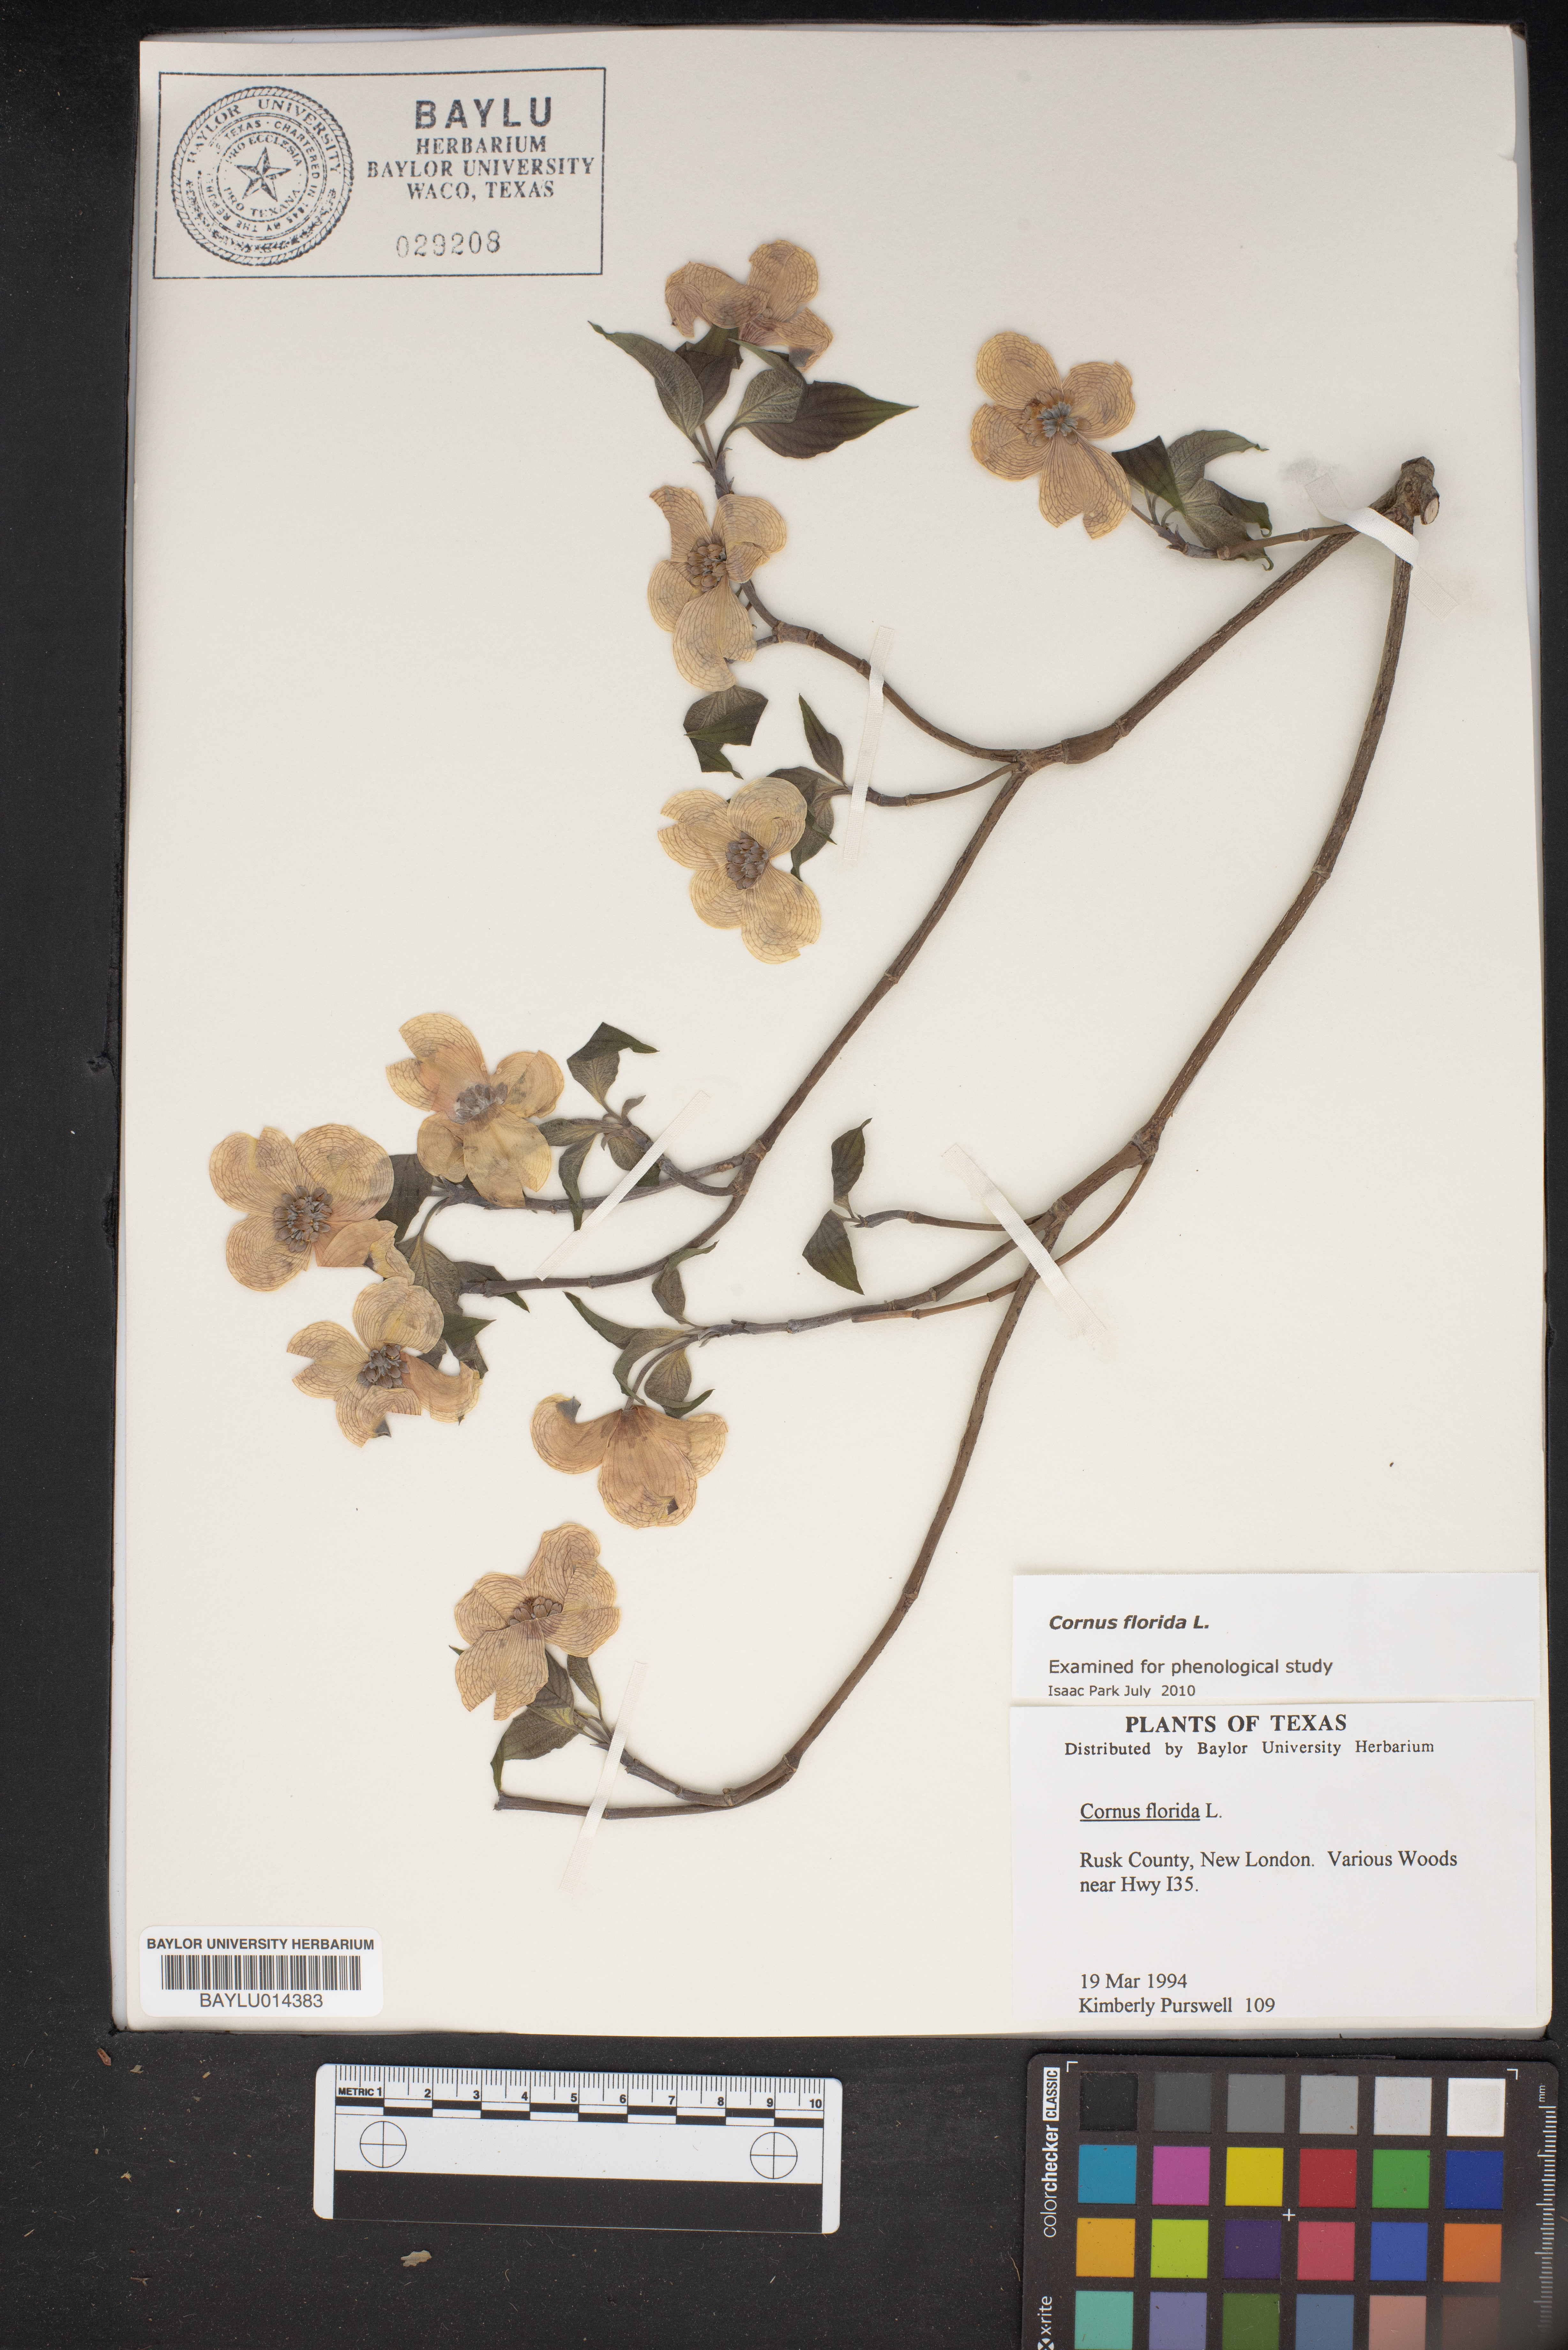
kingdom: Plantae
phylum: Tracheophyta
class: Magnoliopsida
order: Cornales
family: Cornaceae
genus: Cornus
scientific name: Cornus florida
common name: Flowering dogwood
